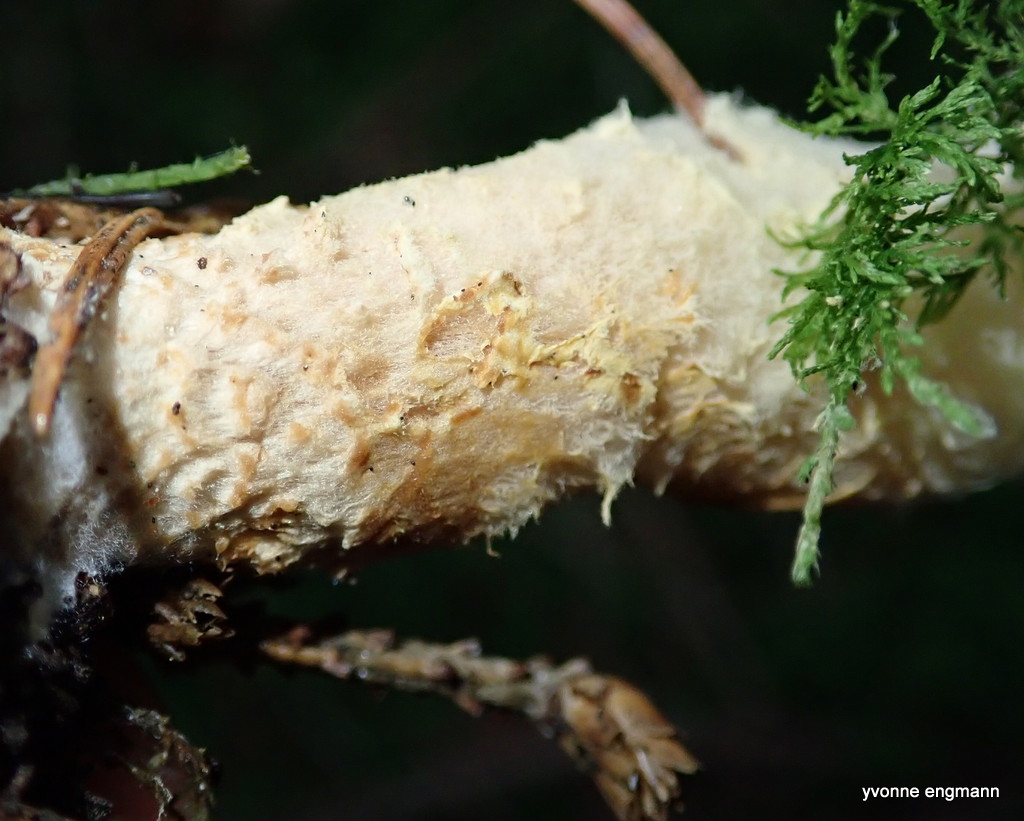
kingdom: Fungi
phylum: Basidiomycota
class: Agaricomycetes
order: Agaricales
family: Agaricaceae
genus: Lepiota
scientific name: Lepiota magnispora
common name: gulfnugget parasolhat
